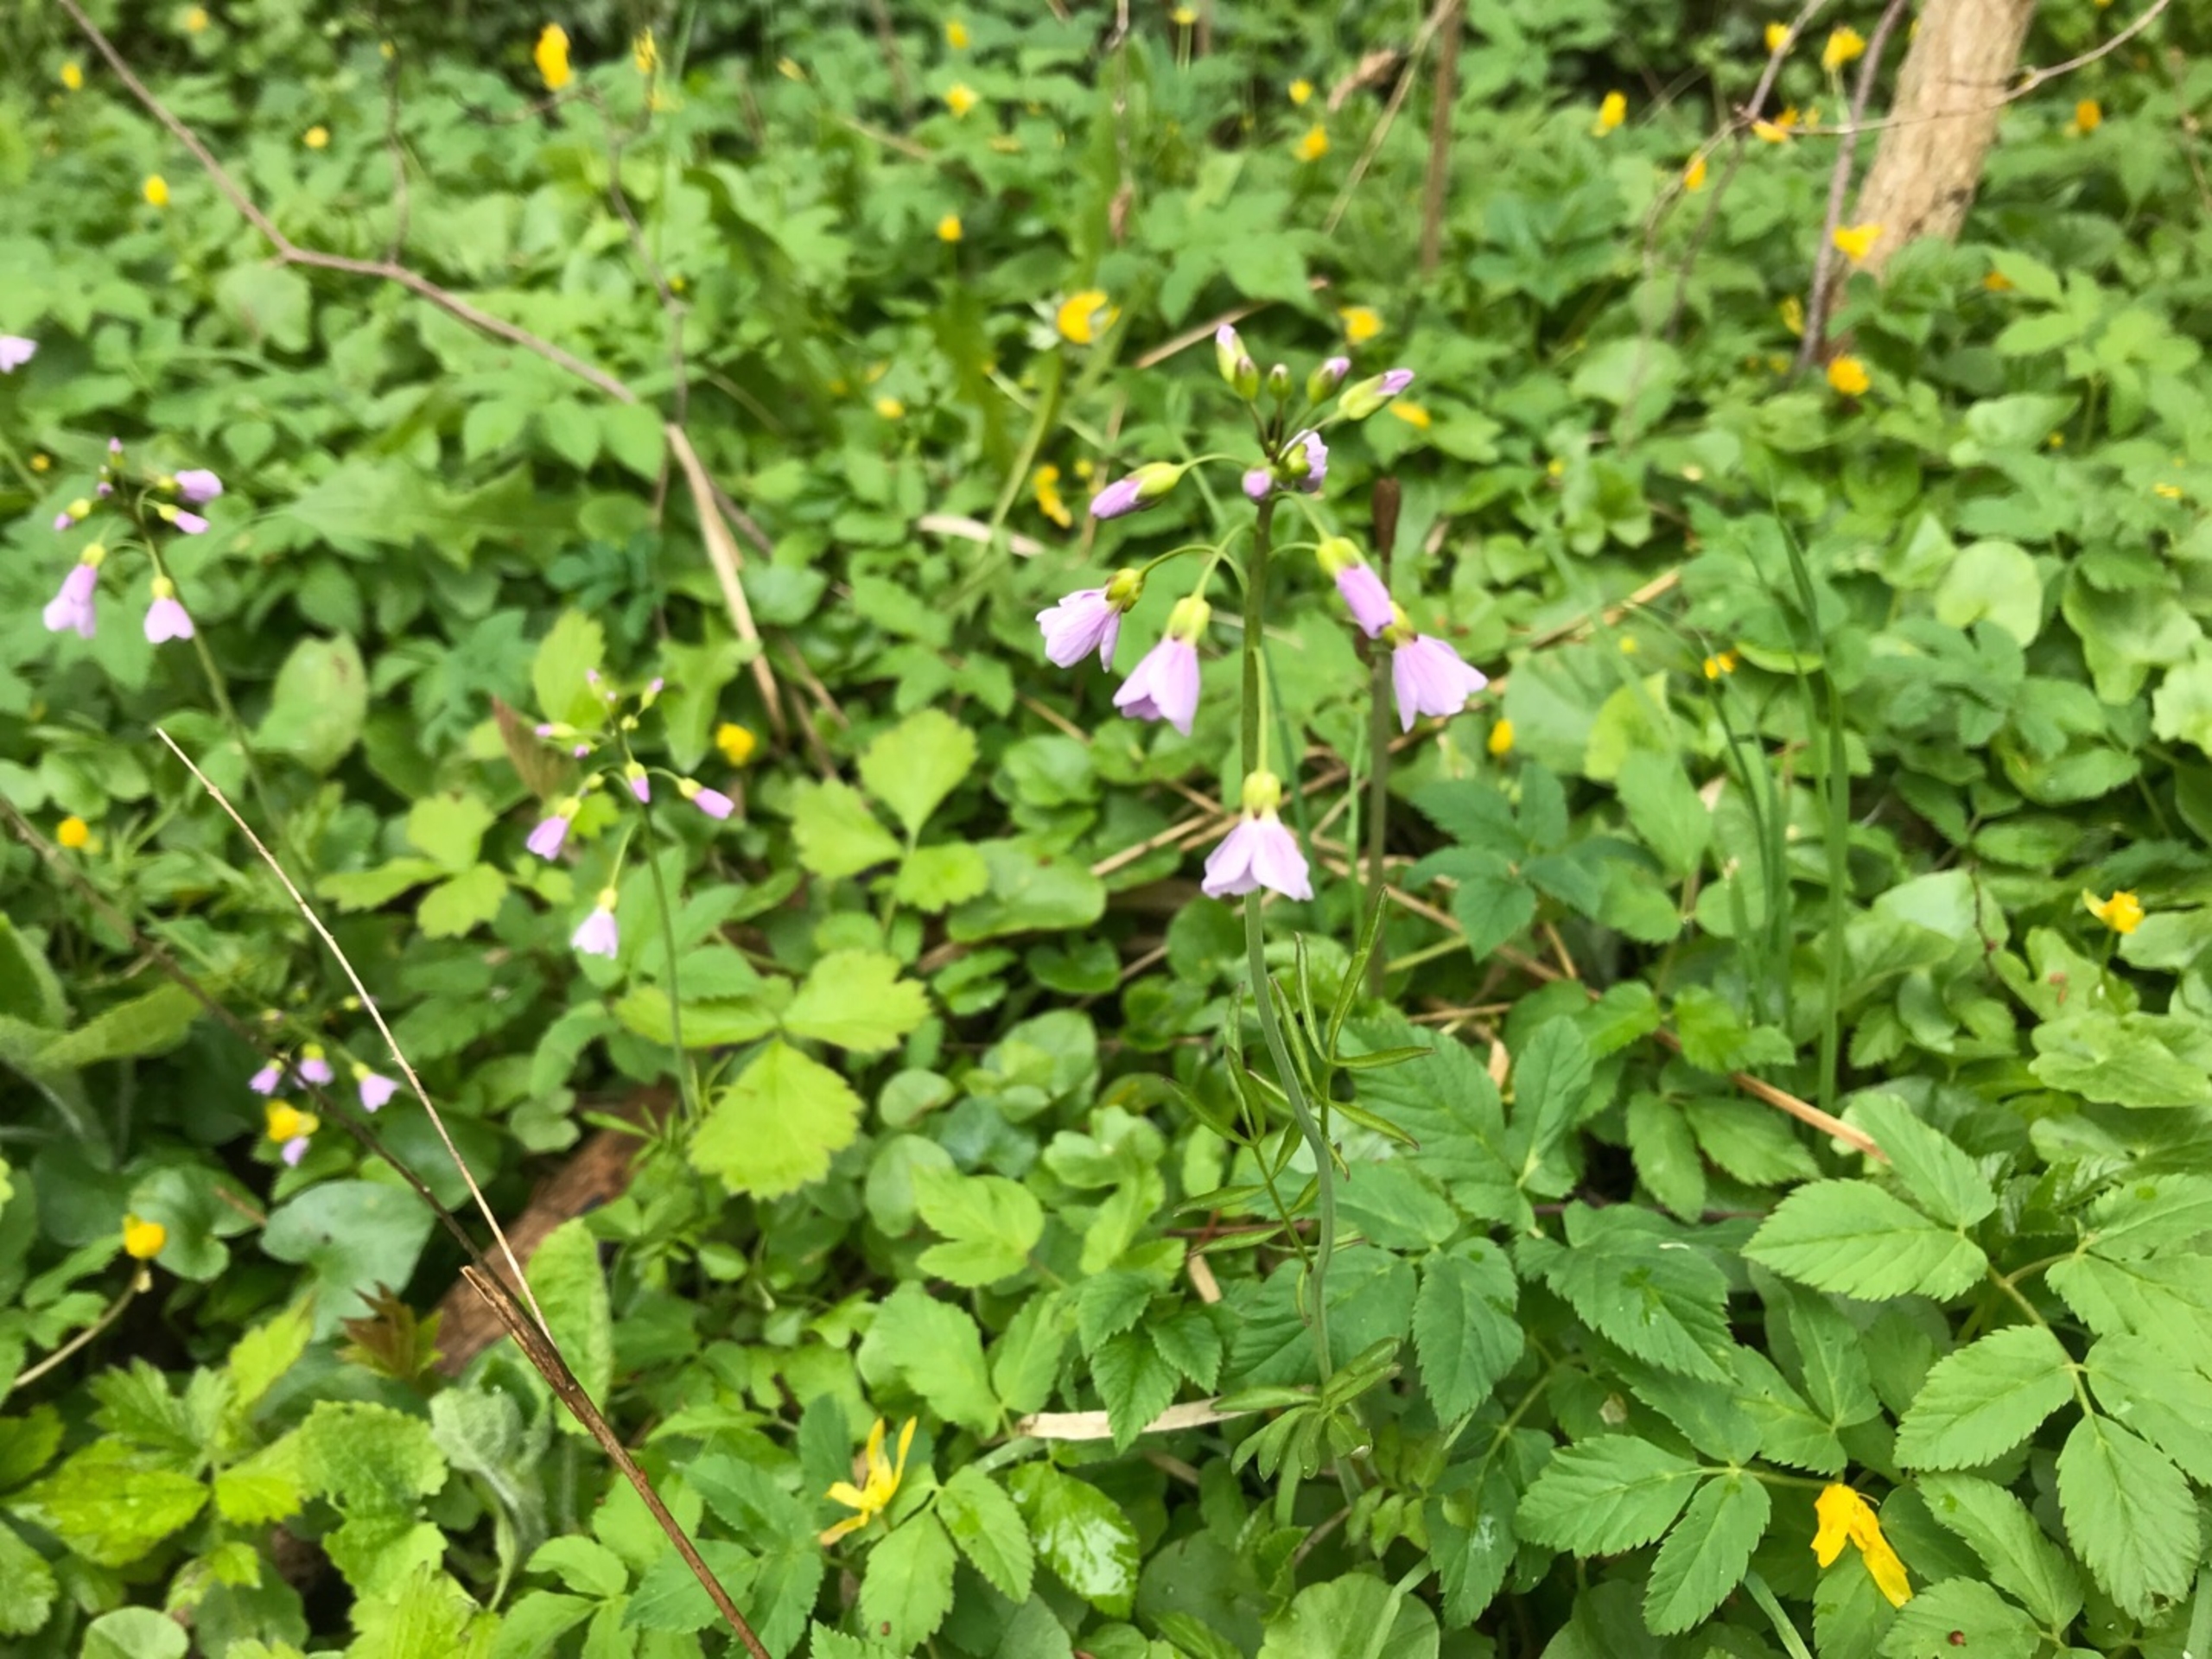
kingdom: Plantae
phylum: Tracheophyta
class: Magnoliopsida
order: Brassicales
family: Brassicaceae
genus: Cardamine
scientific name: Cardamine pratensis
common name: Engkarse
